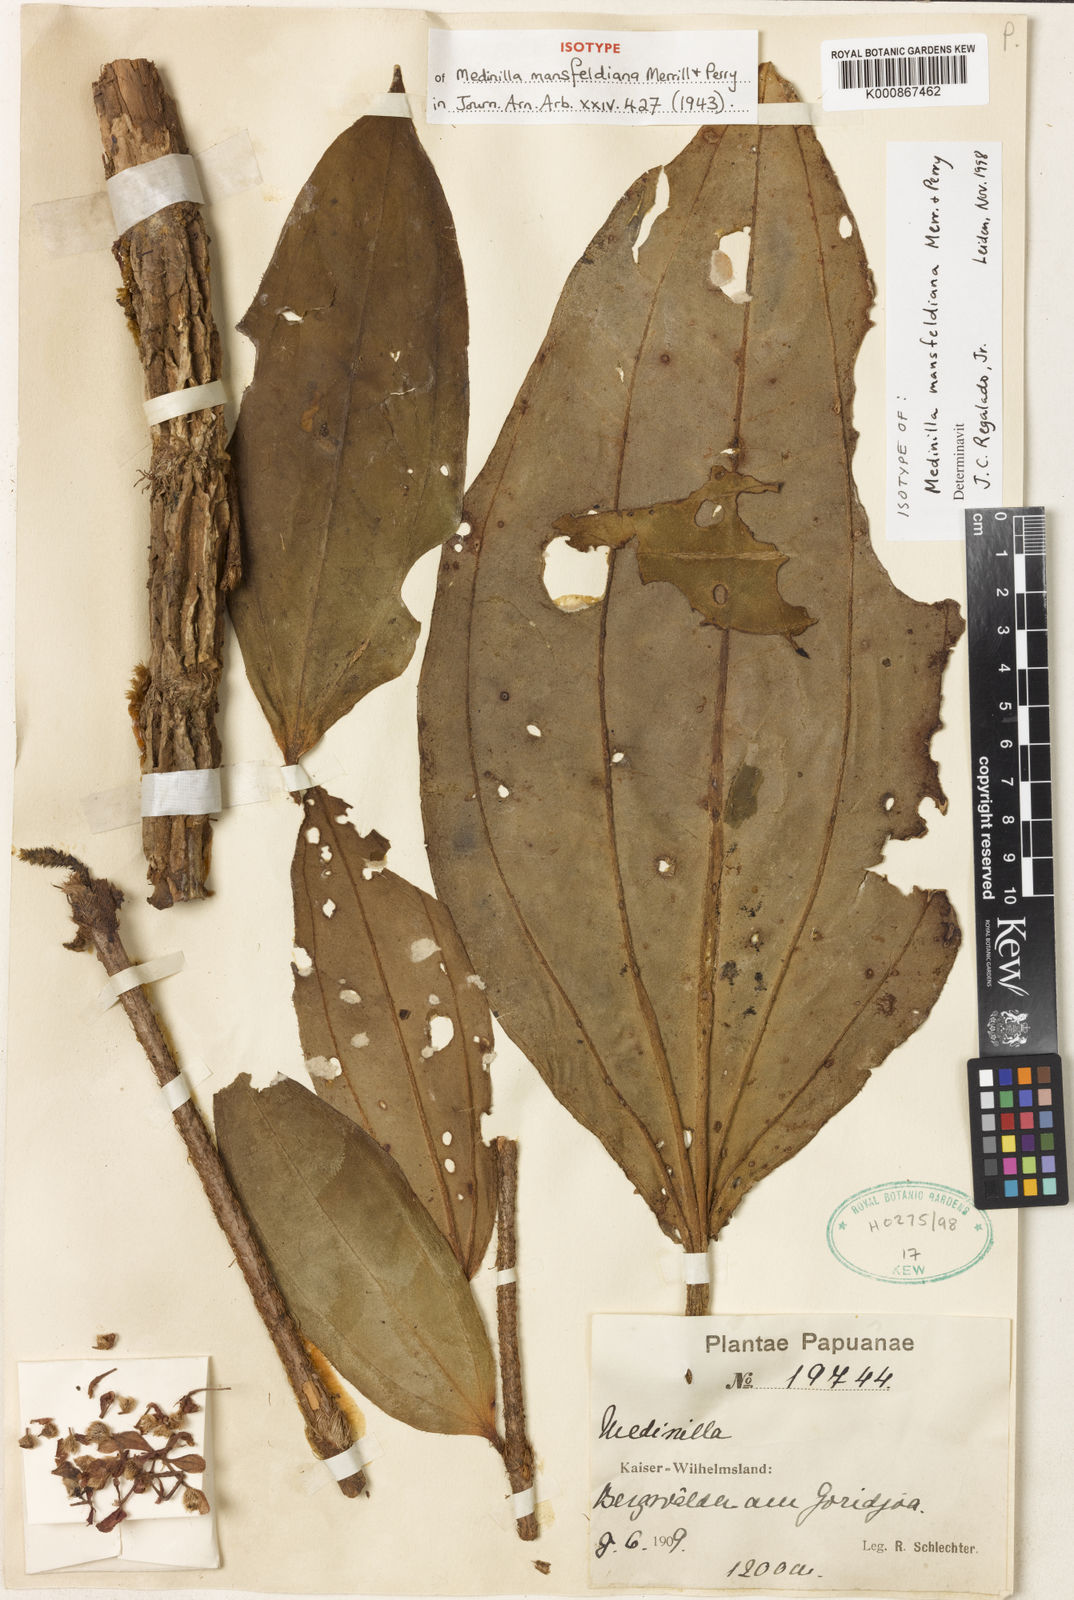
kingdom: Plantae
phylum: Tracheophyta
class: Magnoliopsida
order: Myrtales
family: Melastomataceae
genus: Medinilla
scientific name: Medinilla mansfeldii
